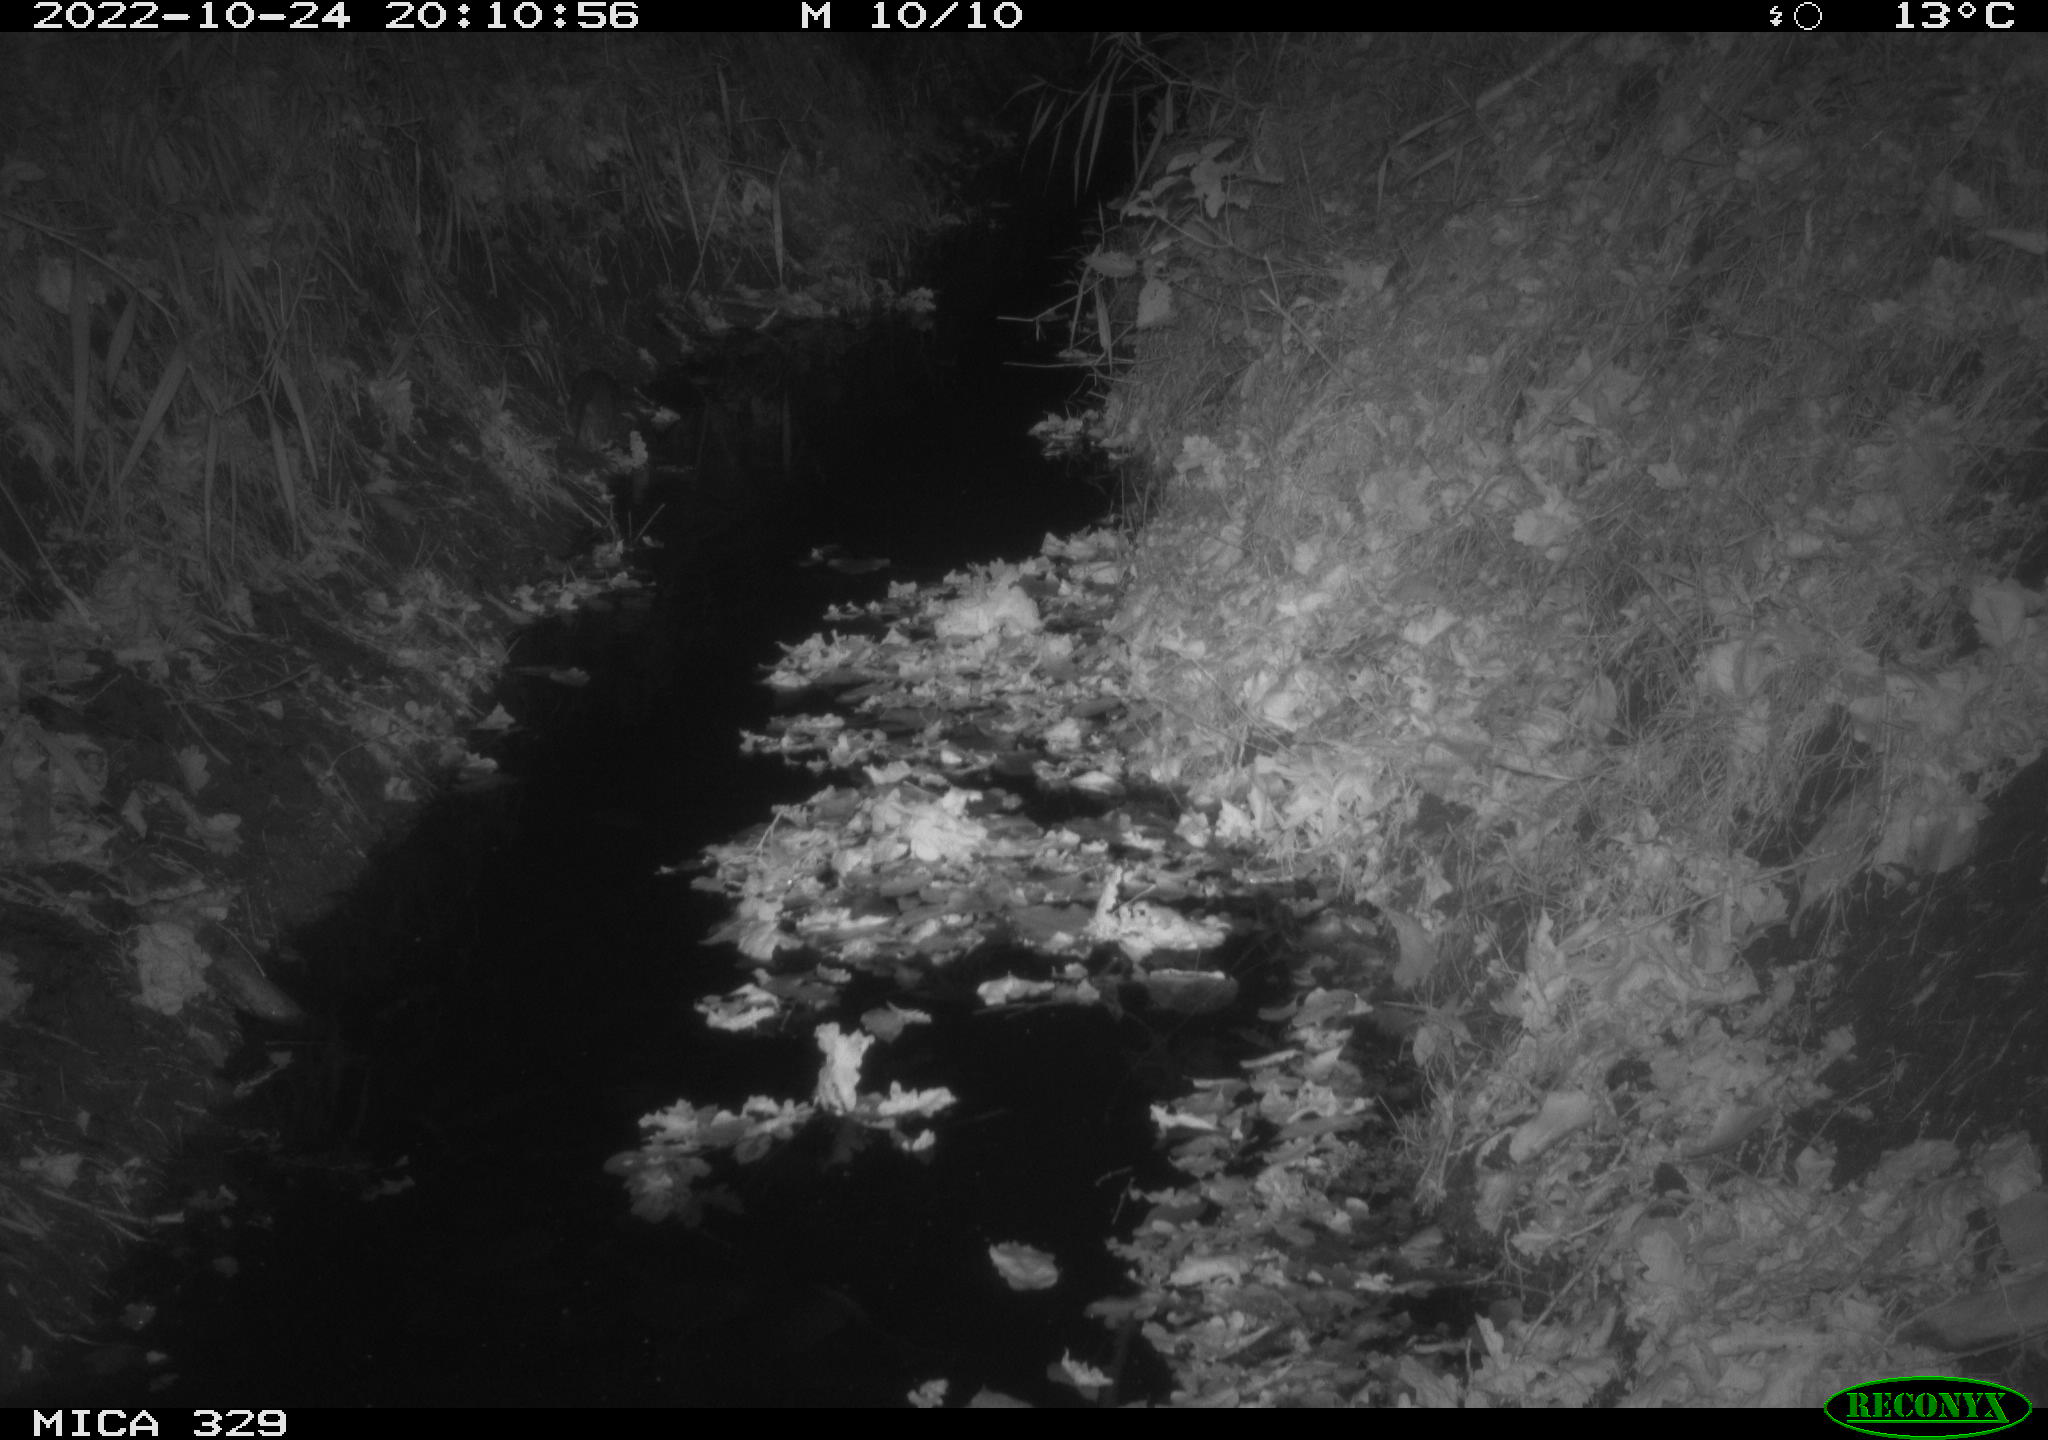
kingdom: Animalia
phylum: Chordata
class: Mammalia
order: Rodentia
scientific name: Rodentia
